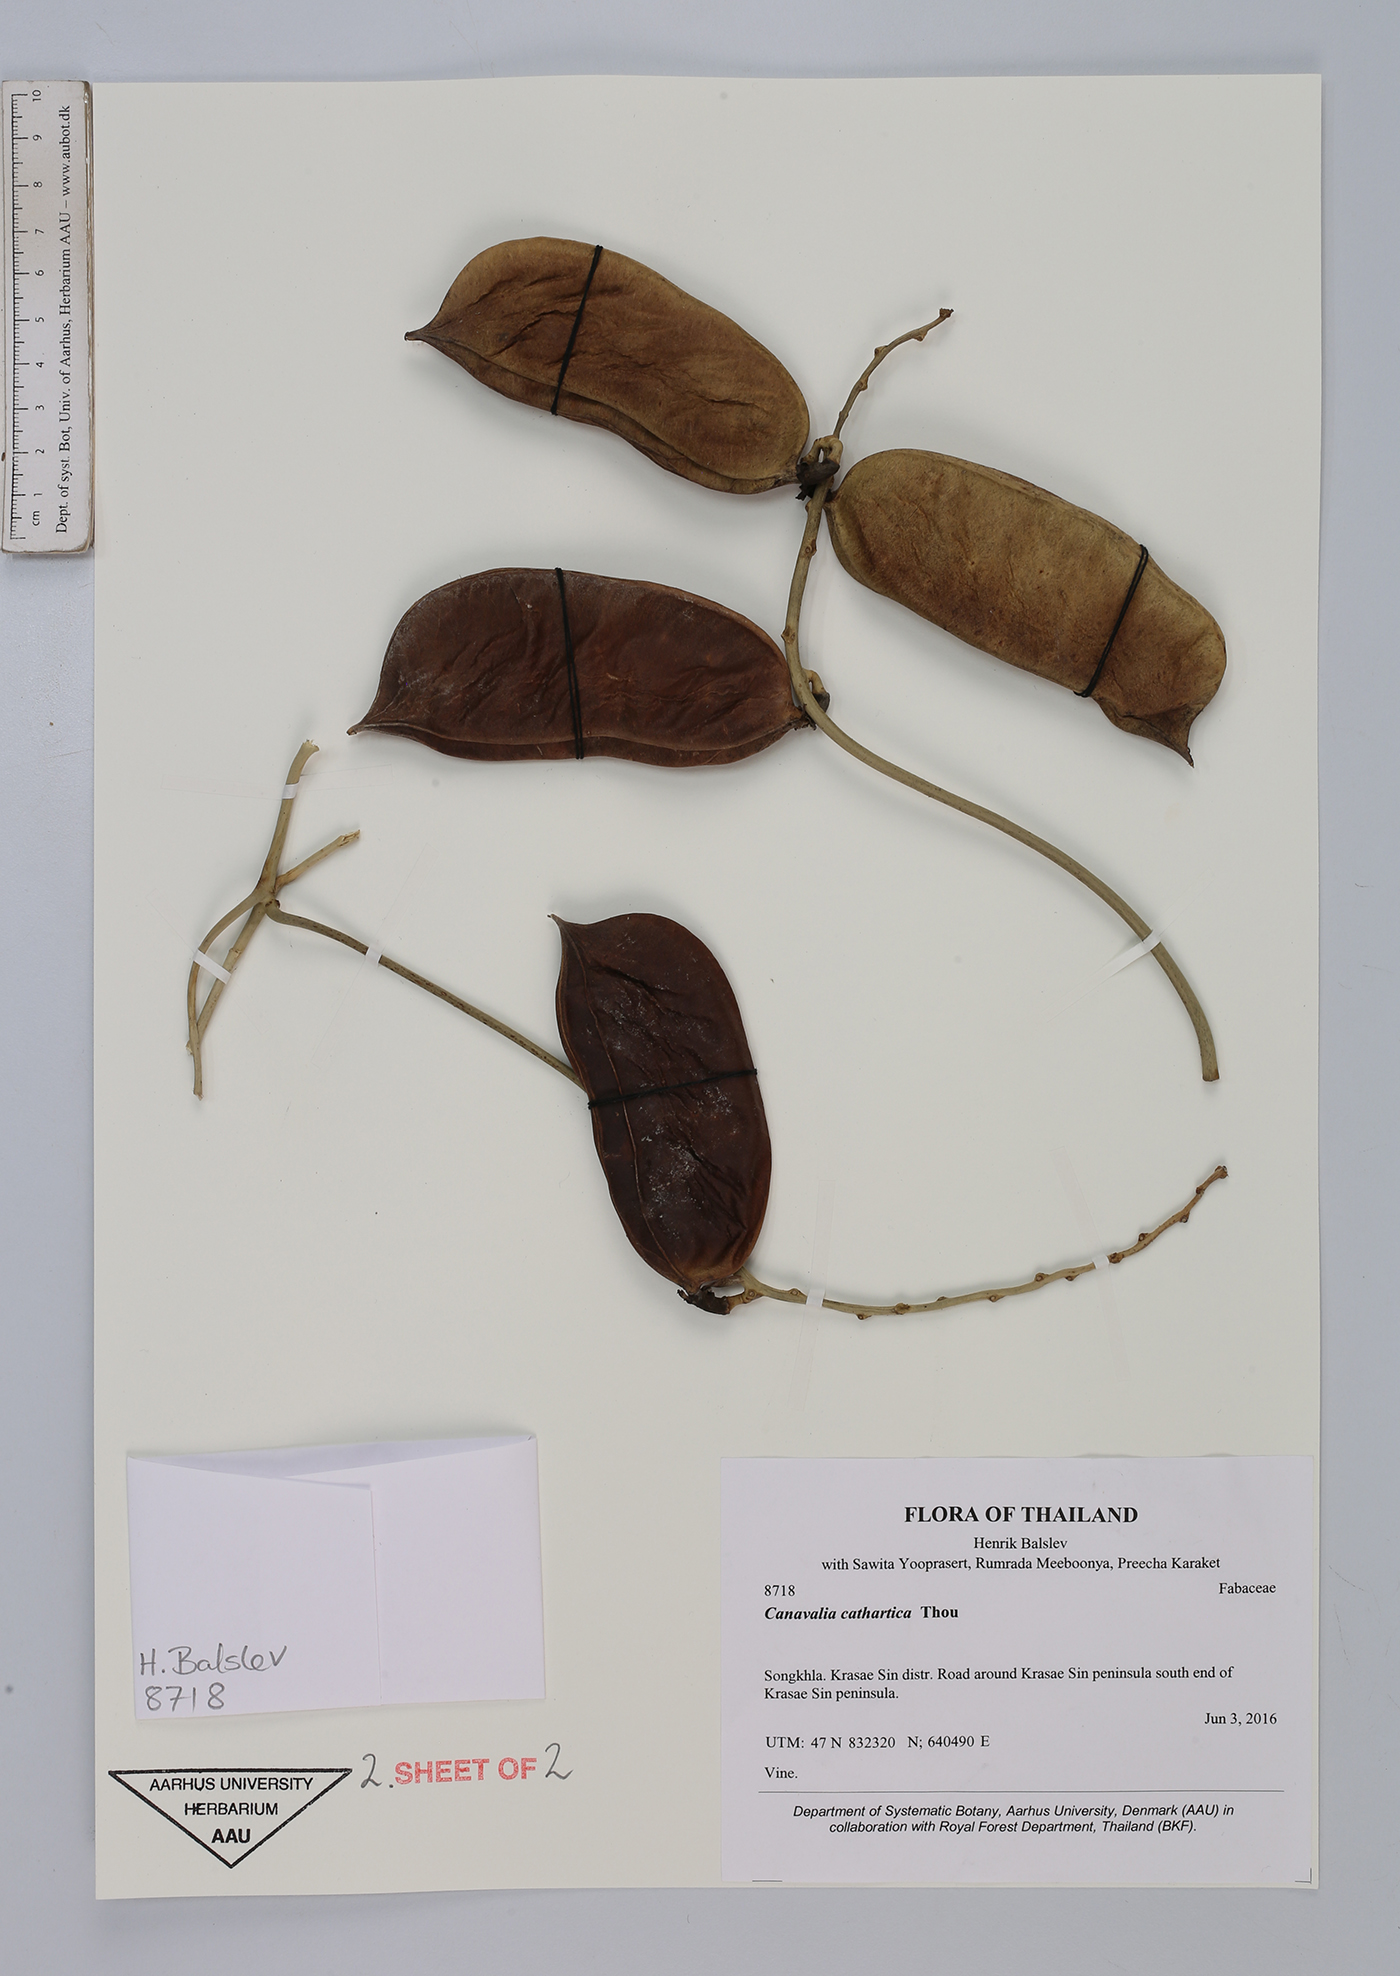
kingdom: Plantae
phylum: Tracheophyta
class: Magnoliopsida
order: Fabales
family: Fabaceae
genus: Canavalia
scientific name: Canavalia cathartica
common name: Maunaloa
